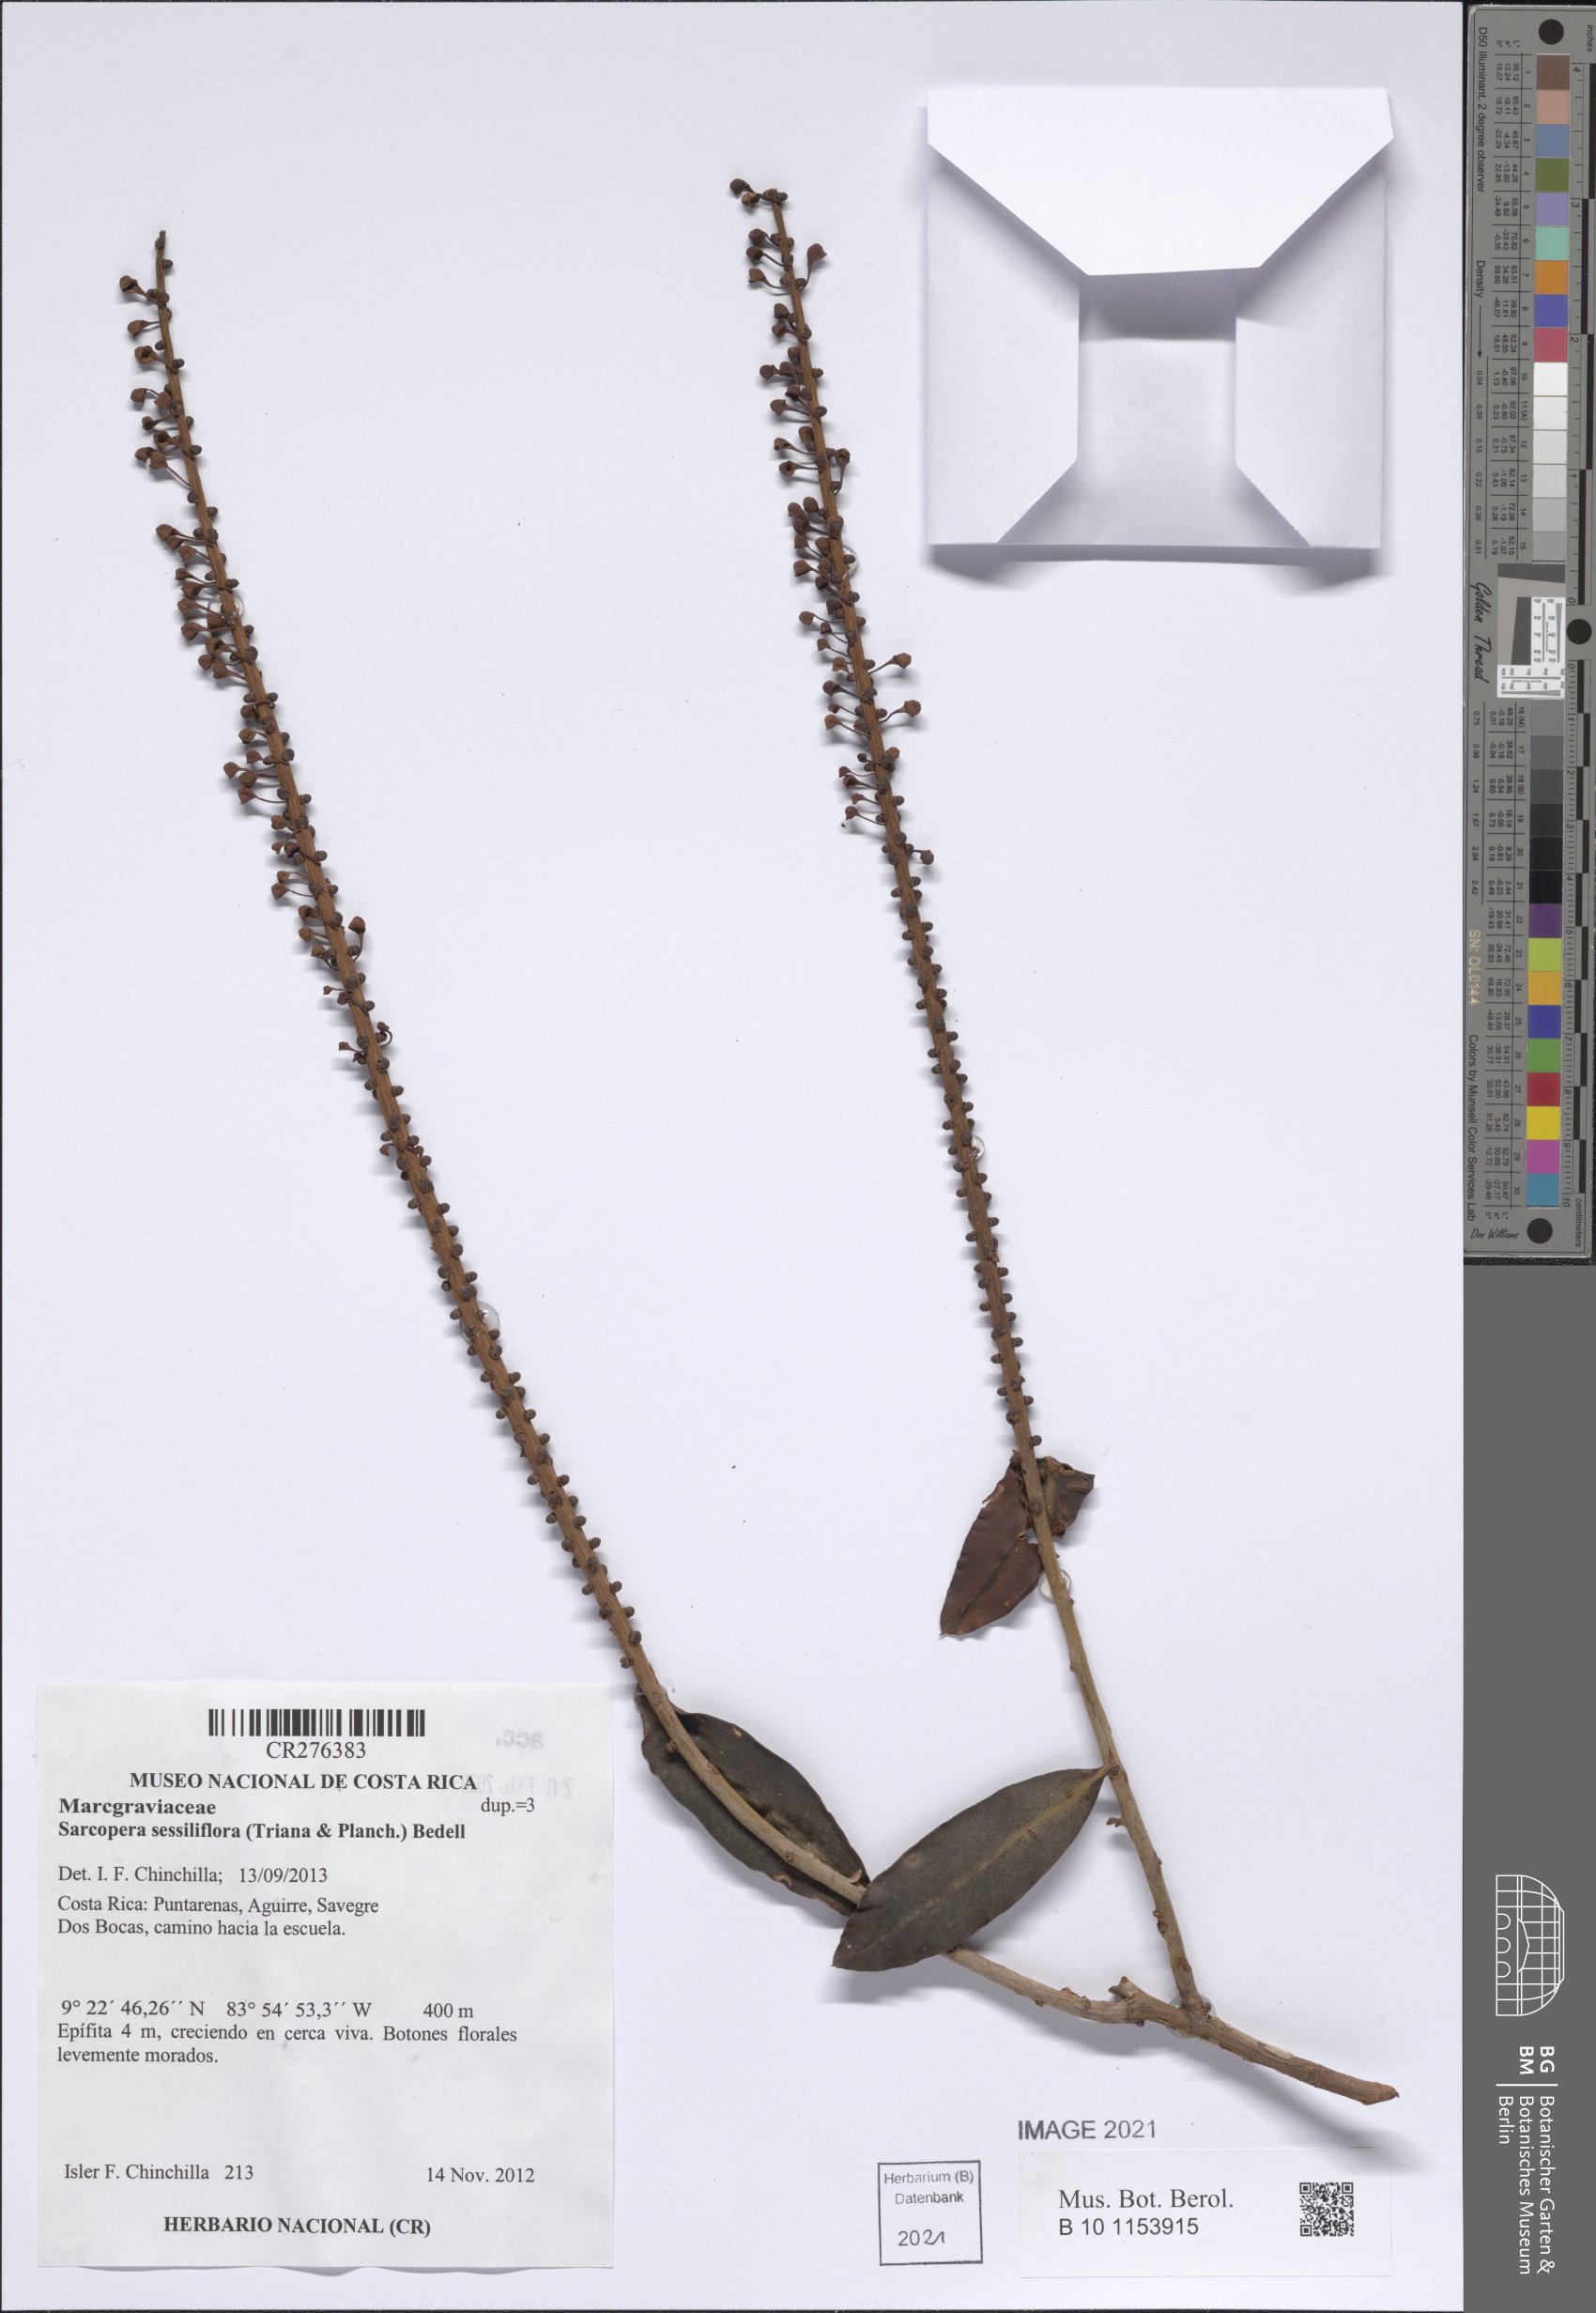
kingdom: Plantae
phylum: Tracheophyta
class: Magnoliopsida
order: Ericales
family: Marcgraviaceae
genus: Sarcopera
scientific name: Sarcopera sessiliflora
